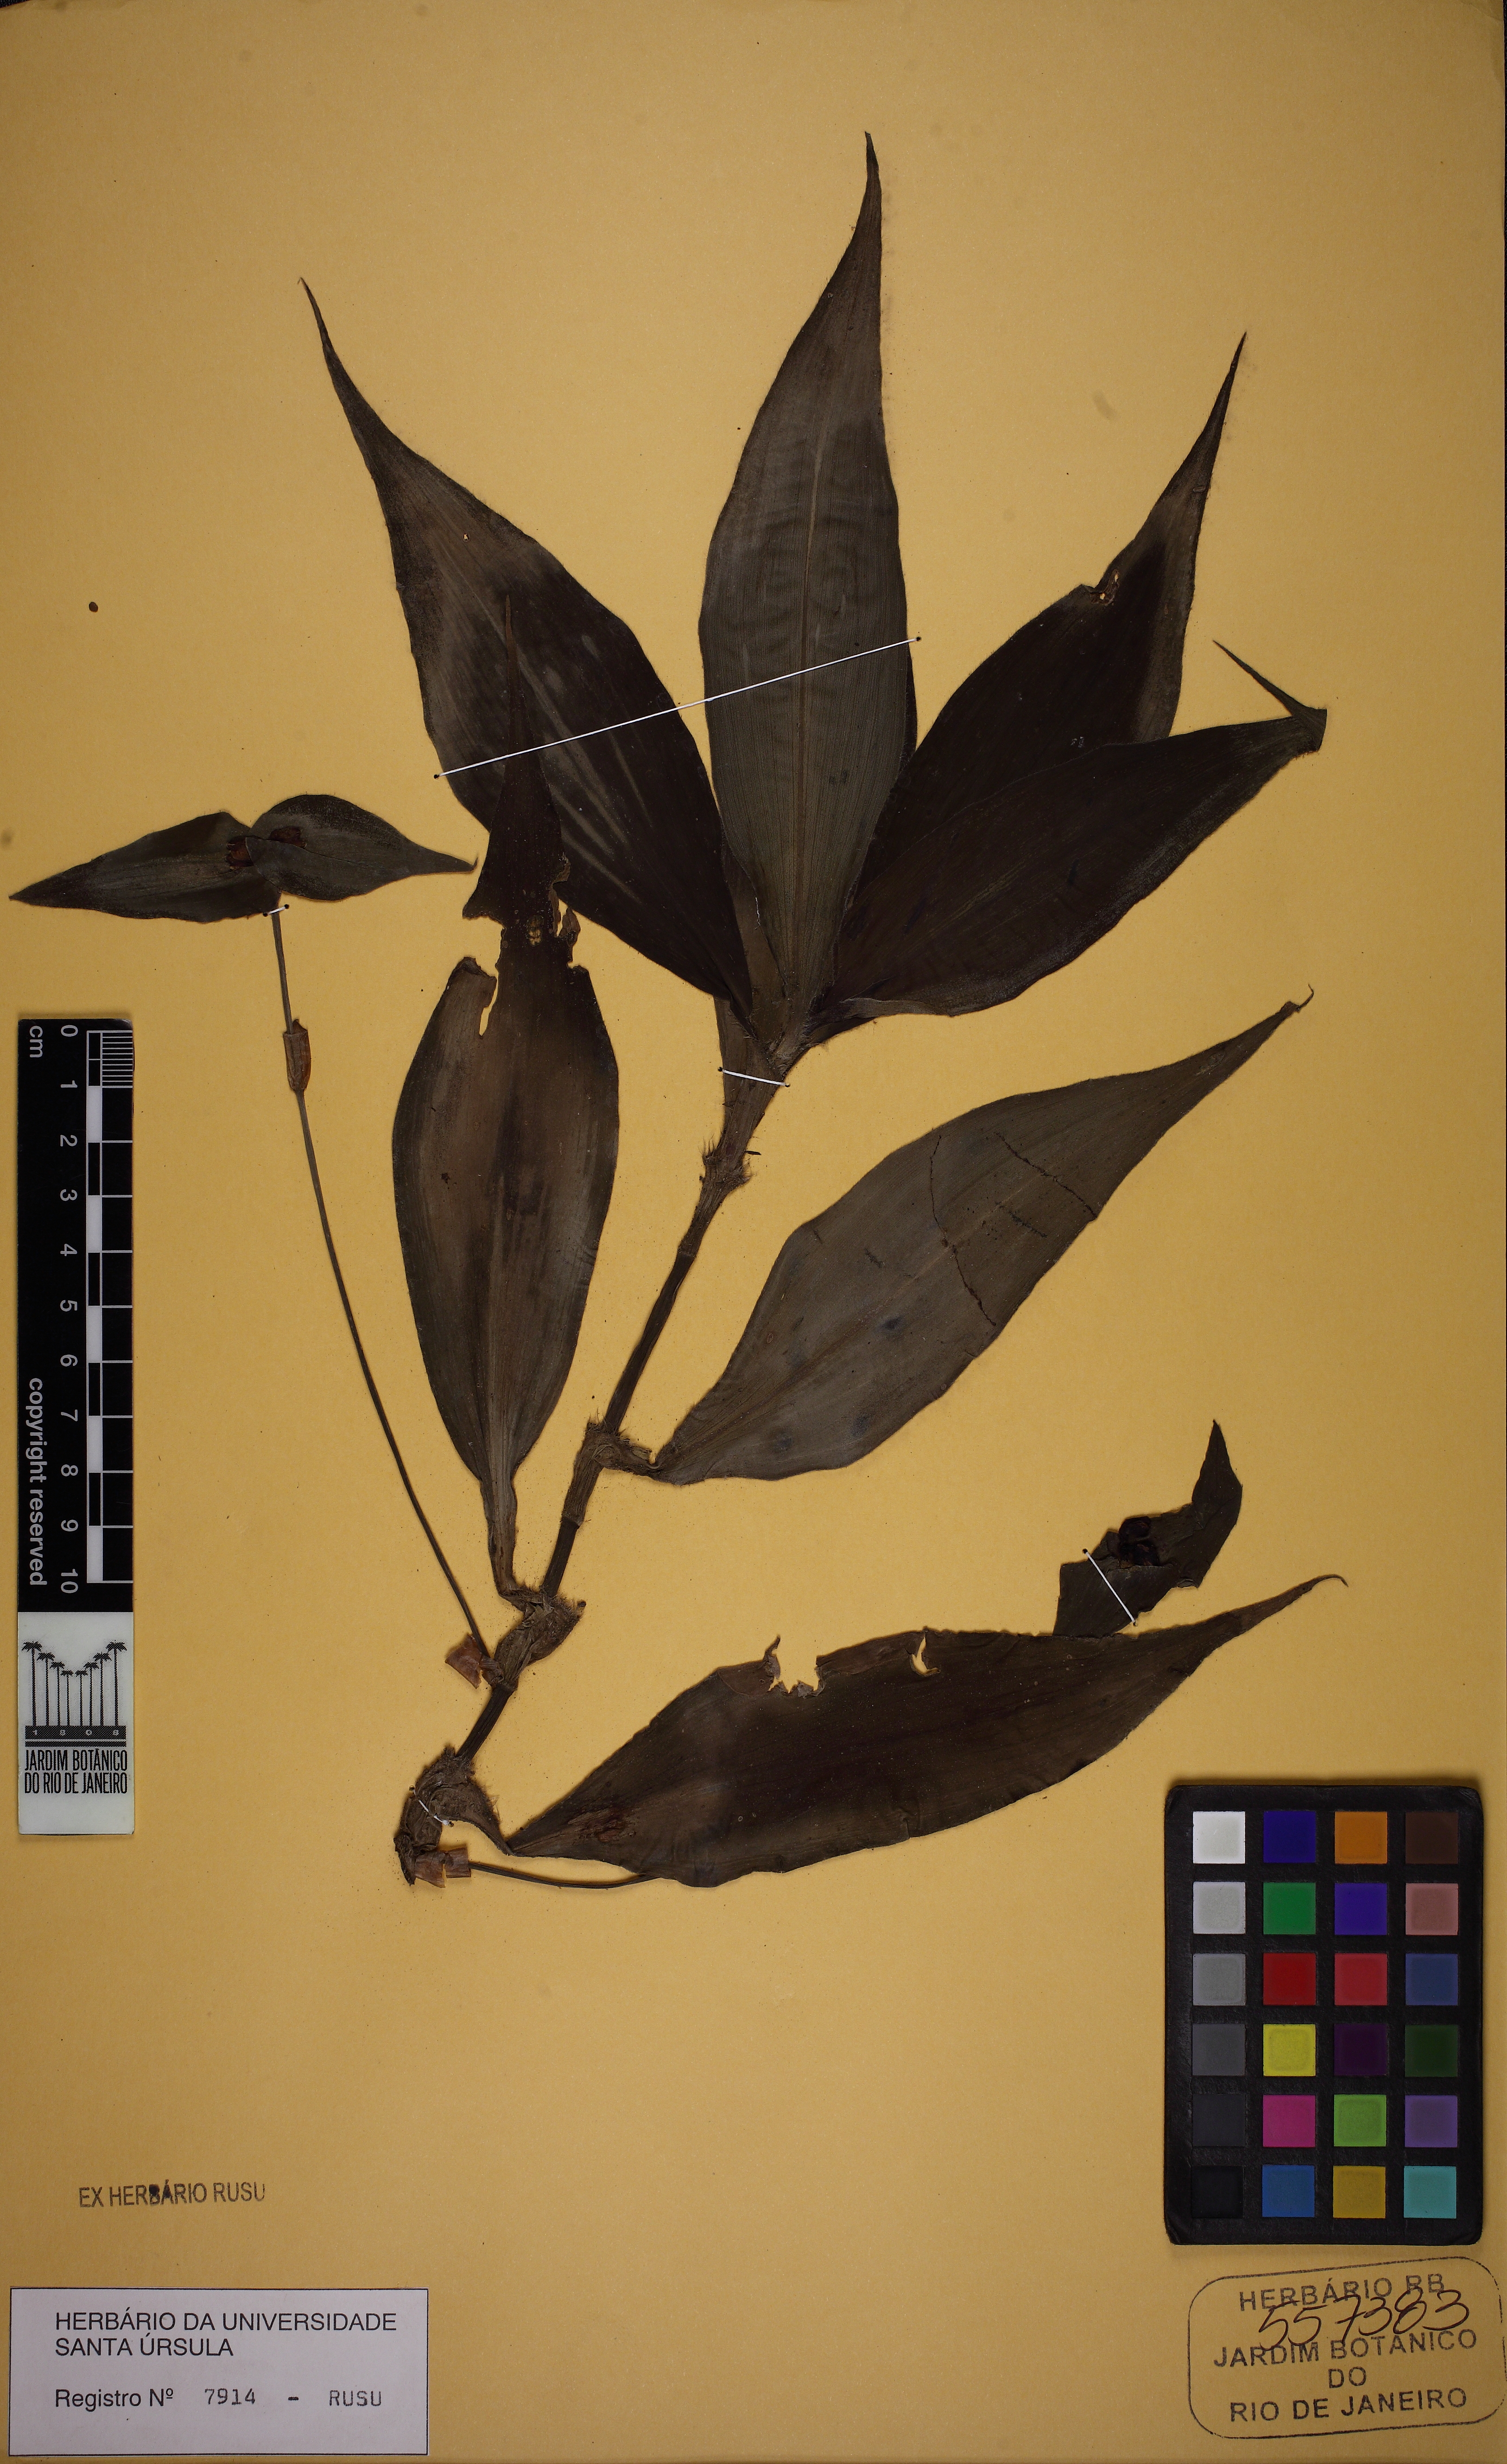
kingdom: Plantae
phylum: Tracheophyta
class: Liliopsida
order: Commelinales
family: Commelinaceae
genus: Tradescantia
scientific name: Tradescantia zanonia
